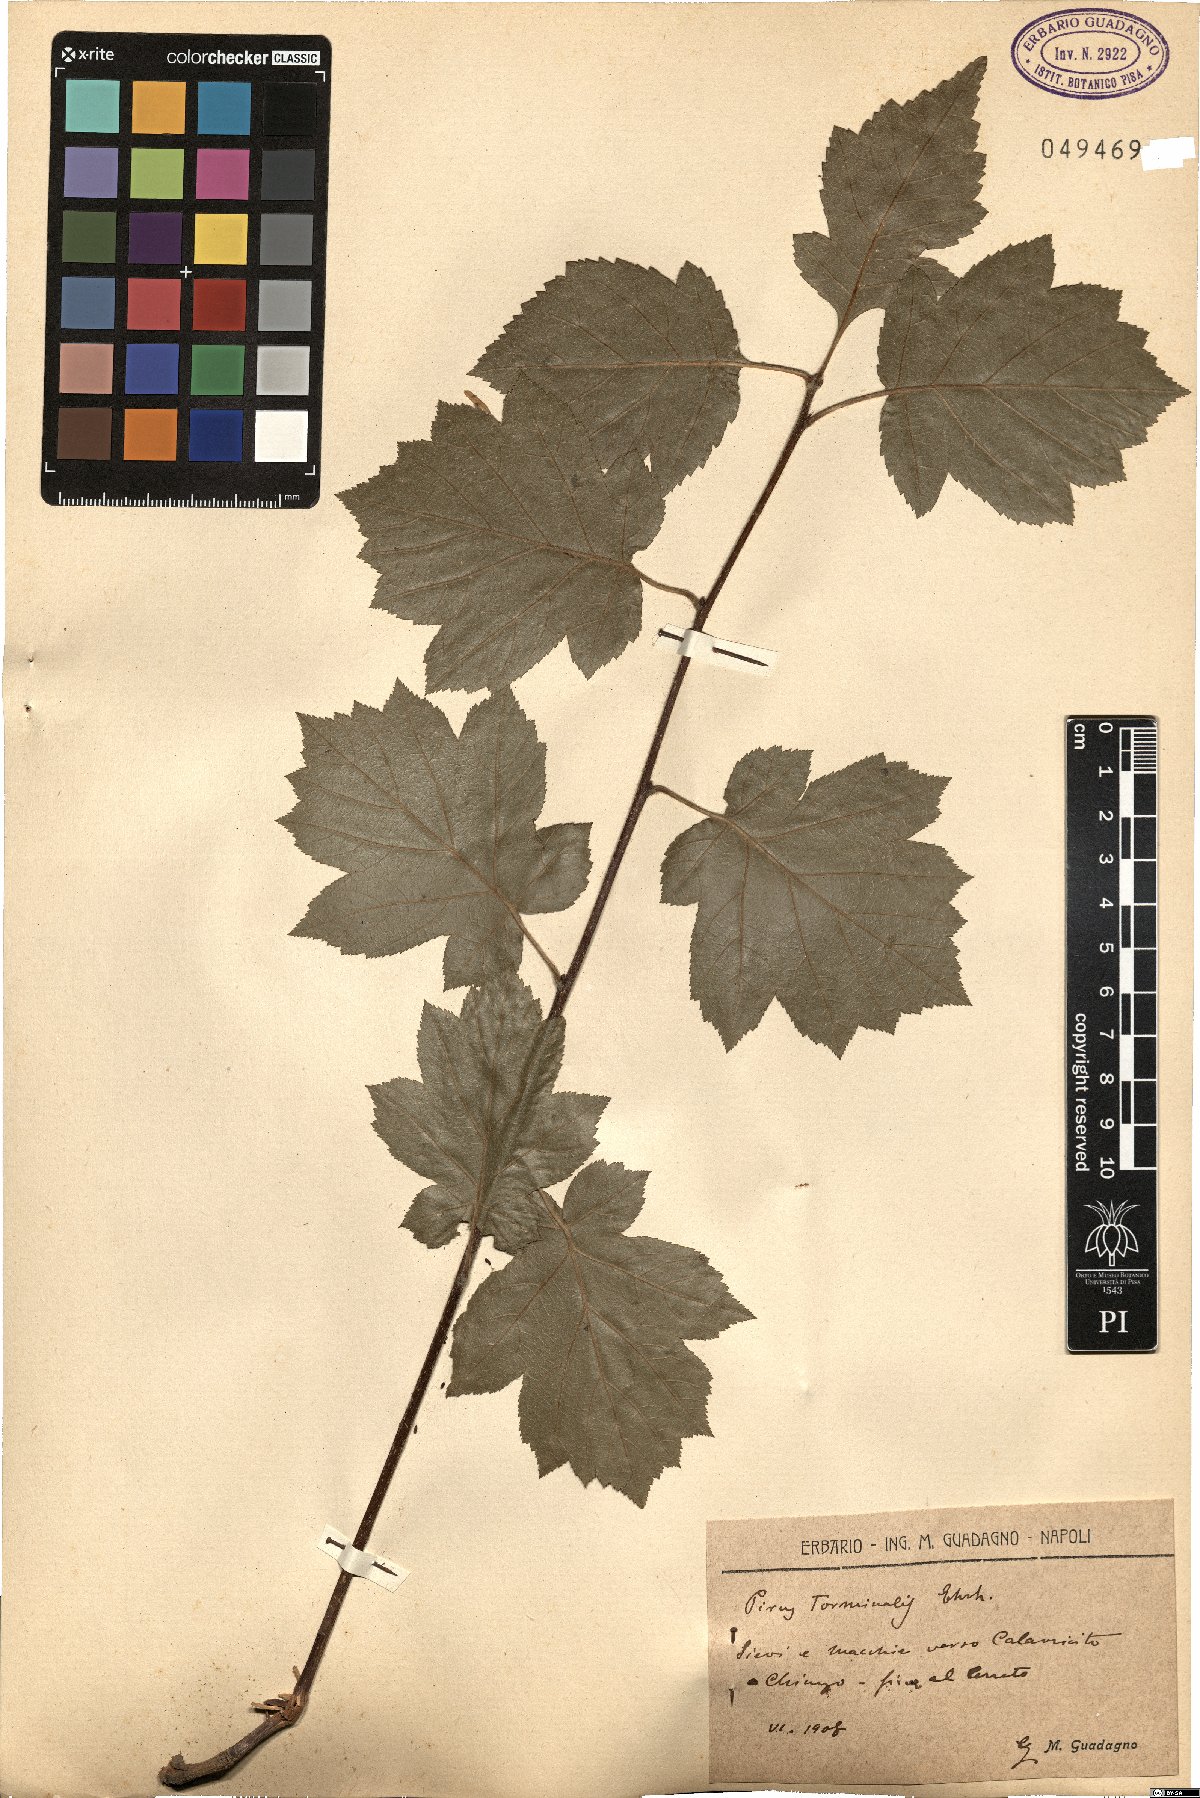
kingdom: Plantae
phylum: Tracheophyta
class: Magnoliopsida
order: Rosales
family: Rosaceae
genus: Torminalis
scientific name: Torminalis glaberrima
